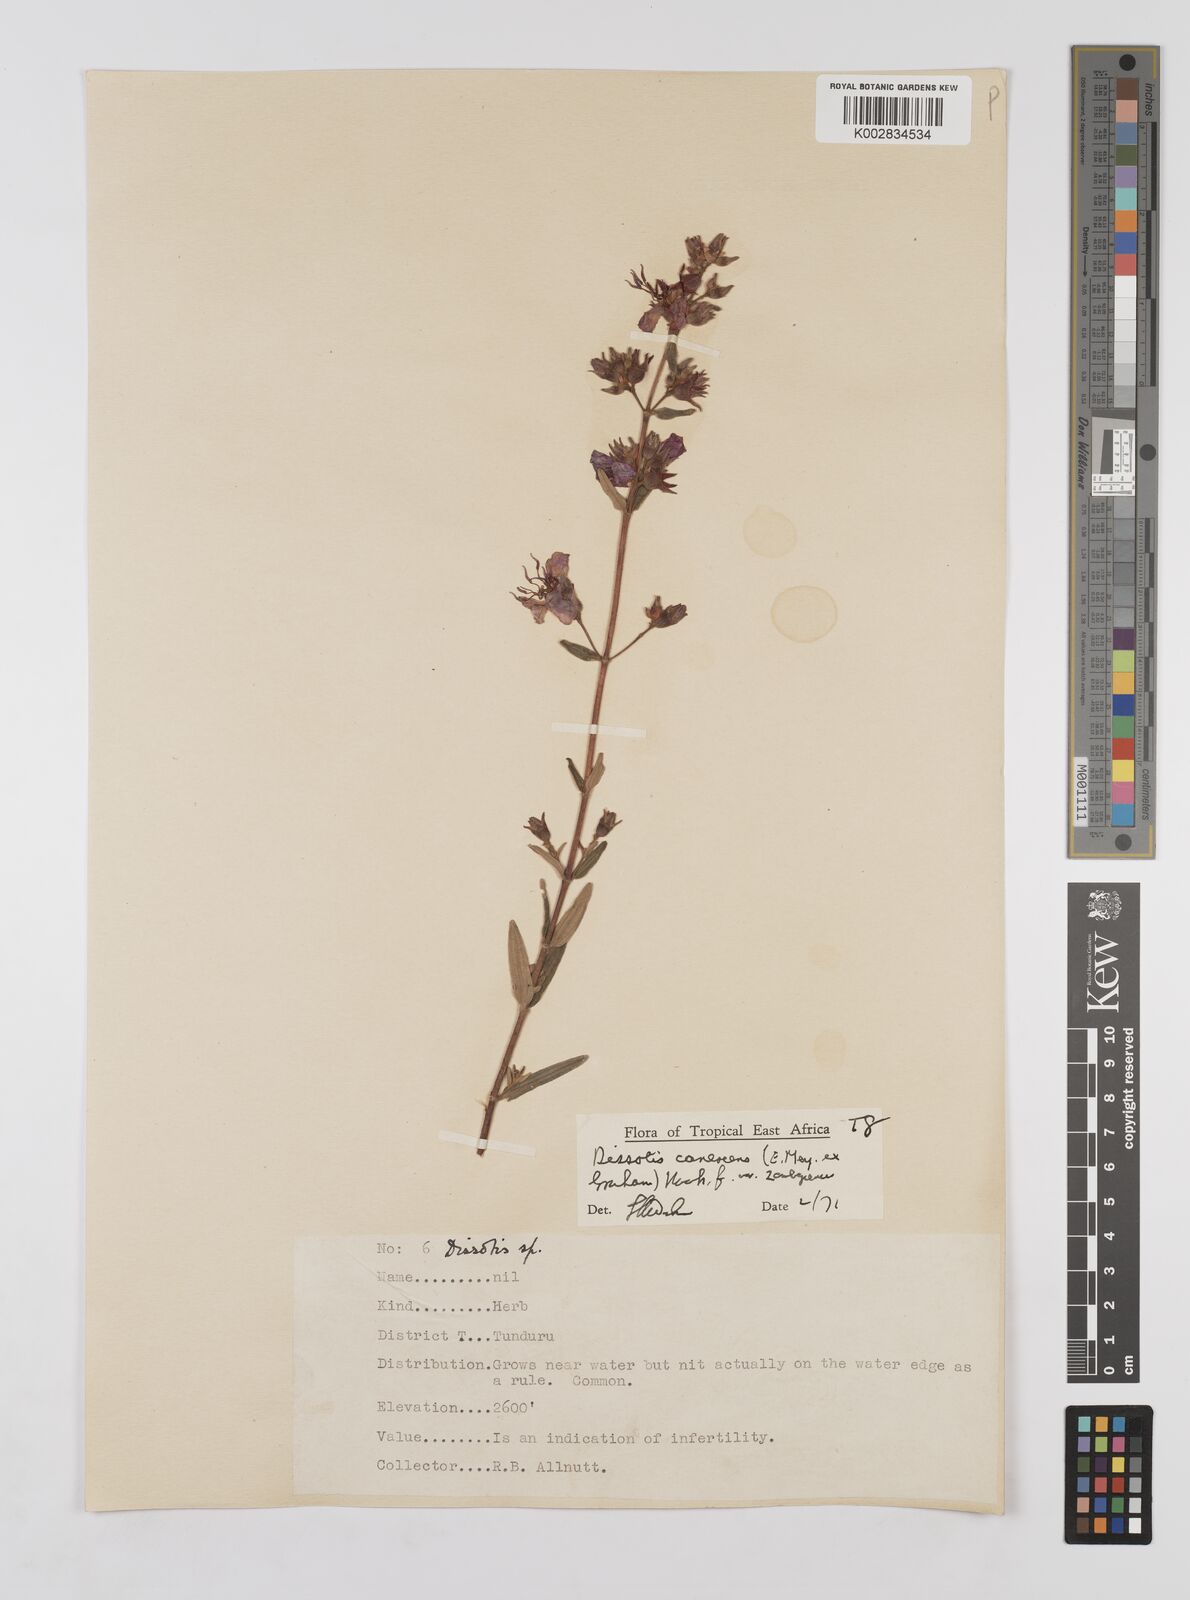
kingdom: Plantae
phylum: Tracheophyta
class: Magnoliopsida
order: Myrtales
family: Melastomataceae
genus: Argyrella
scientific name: Argyrella canescens
